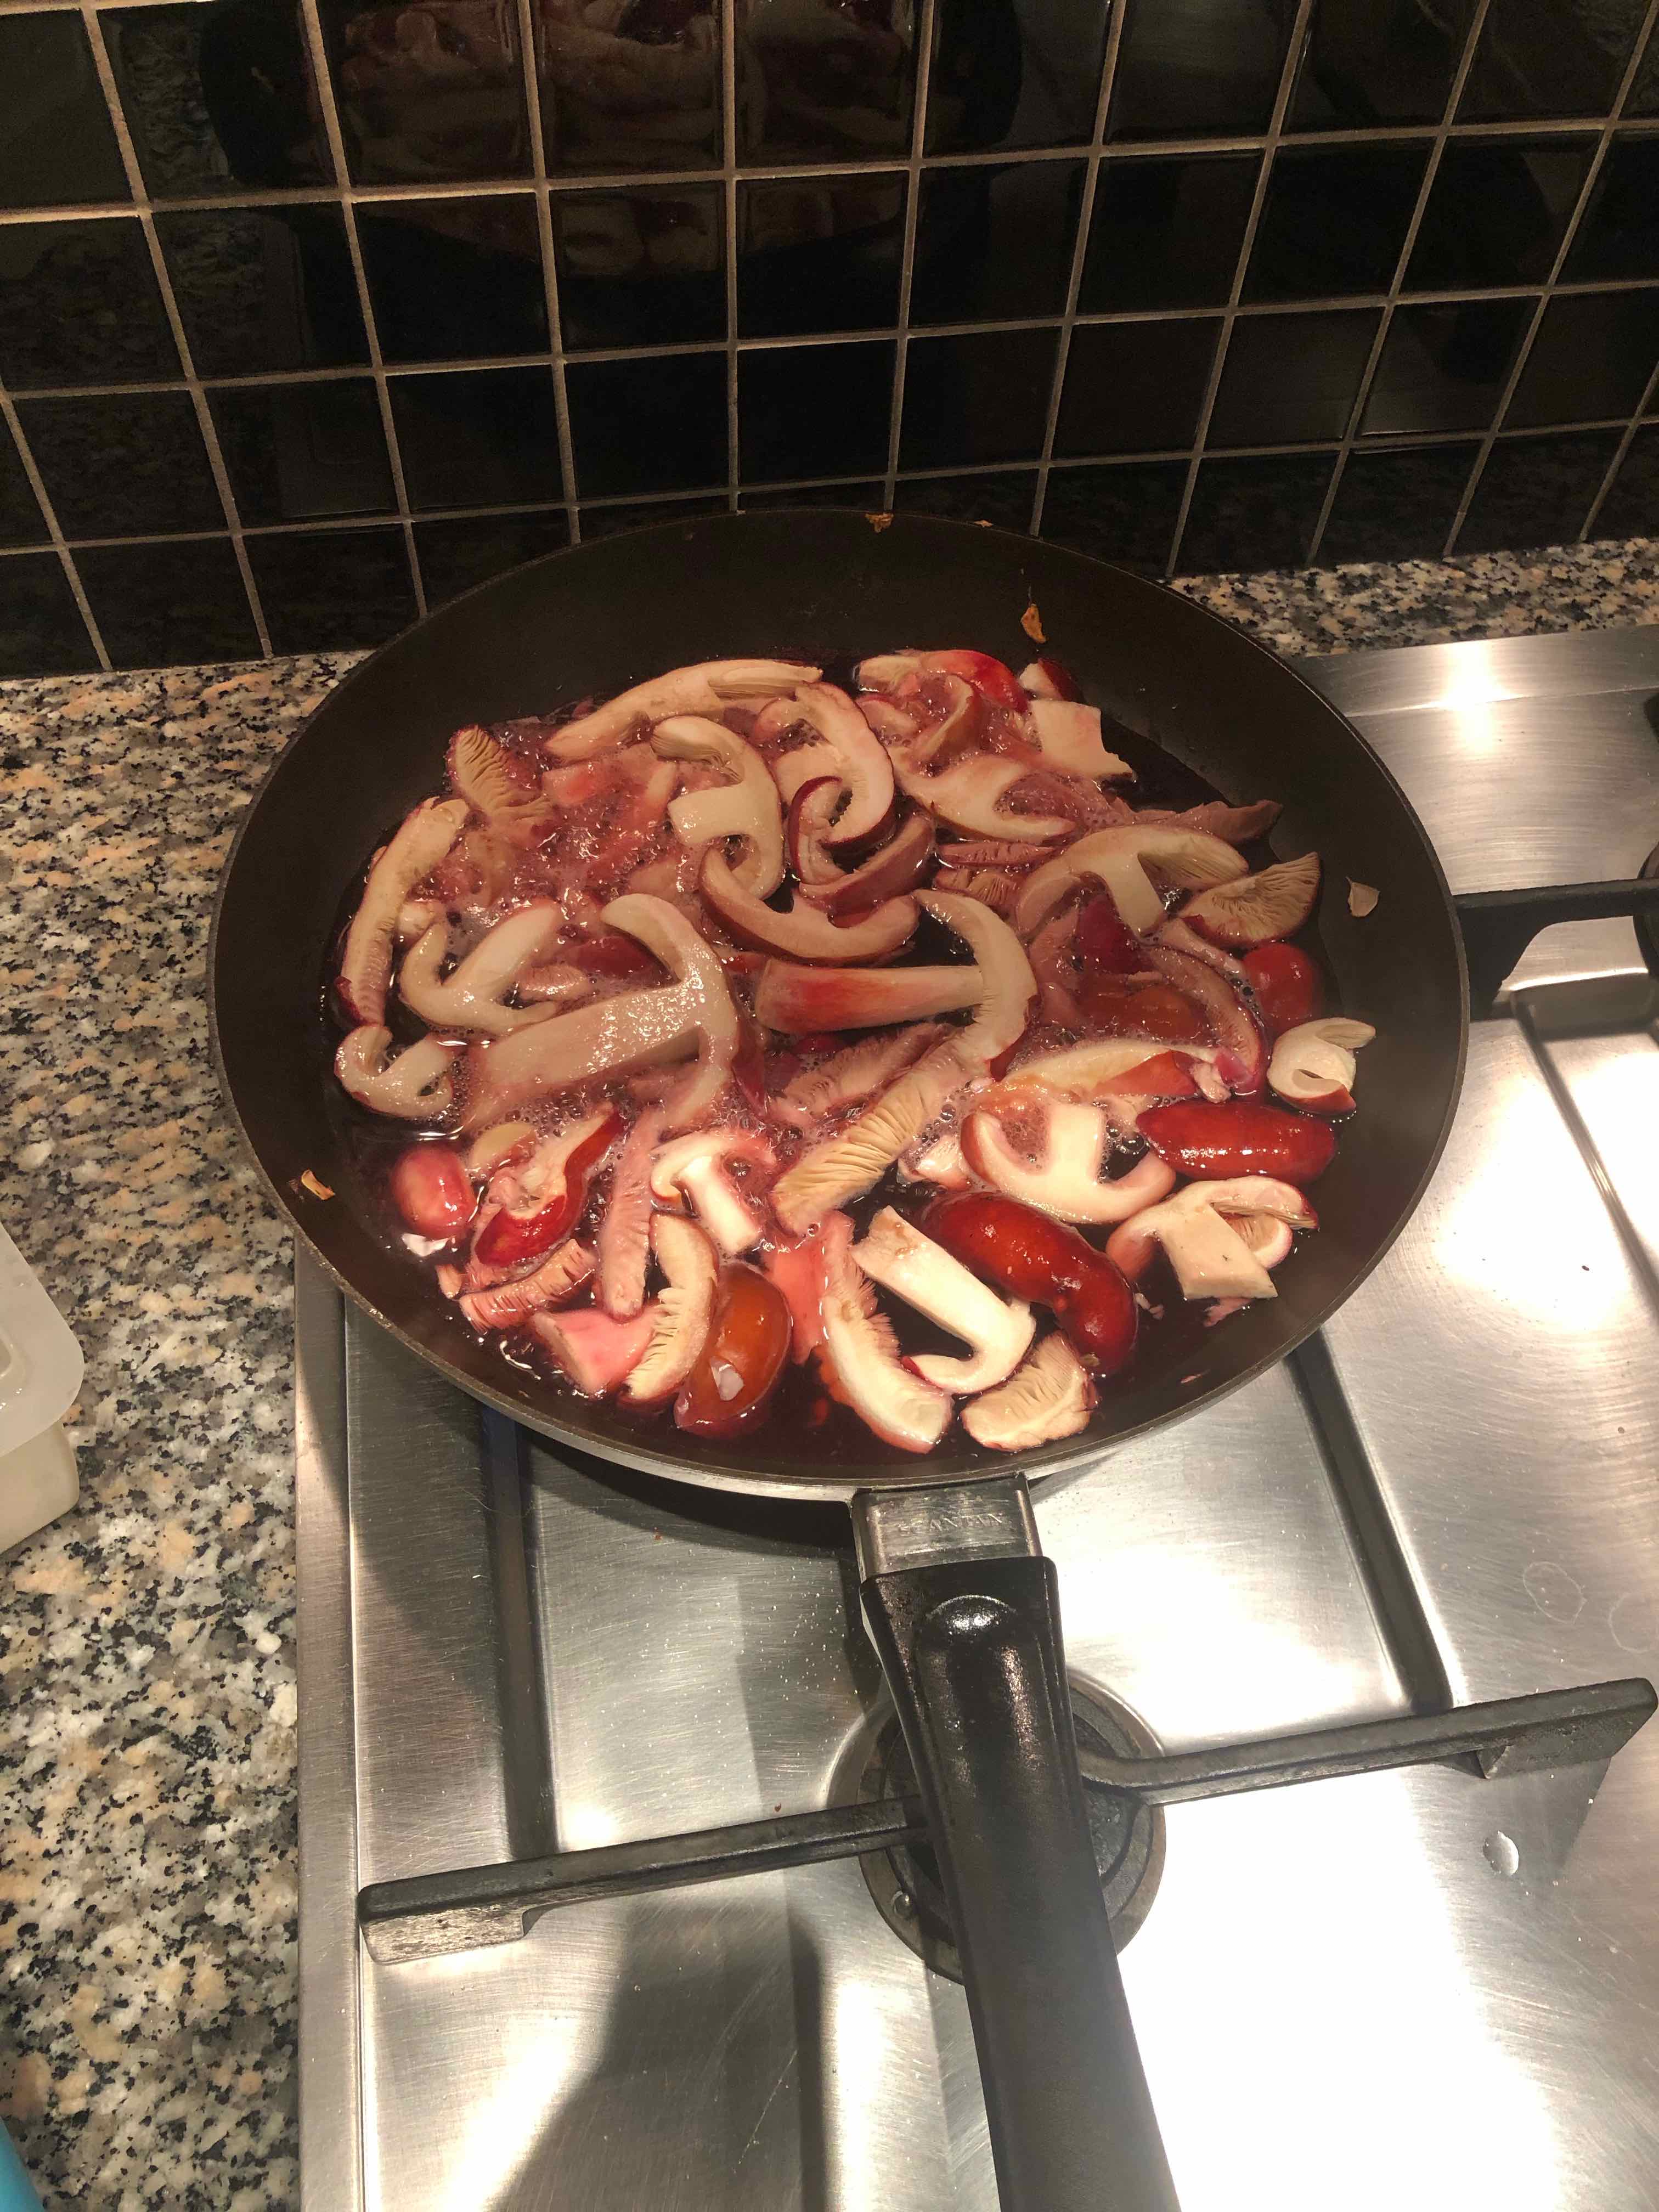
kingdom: Fungi
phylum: Basidiomycota
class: Agaricomycetes
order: Russulales
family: Russulaceae
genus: Russula
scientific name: Russula paludosa
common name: prægtig skørhat
